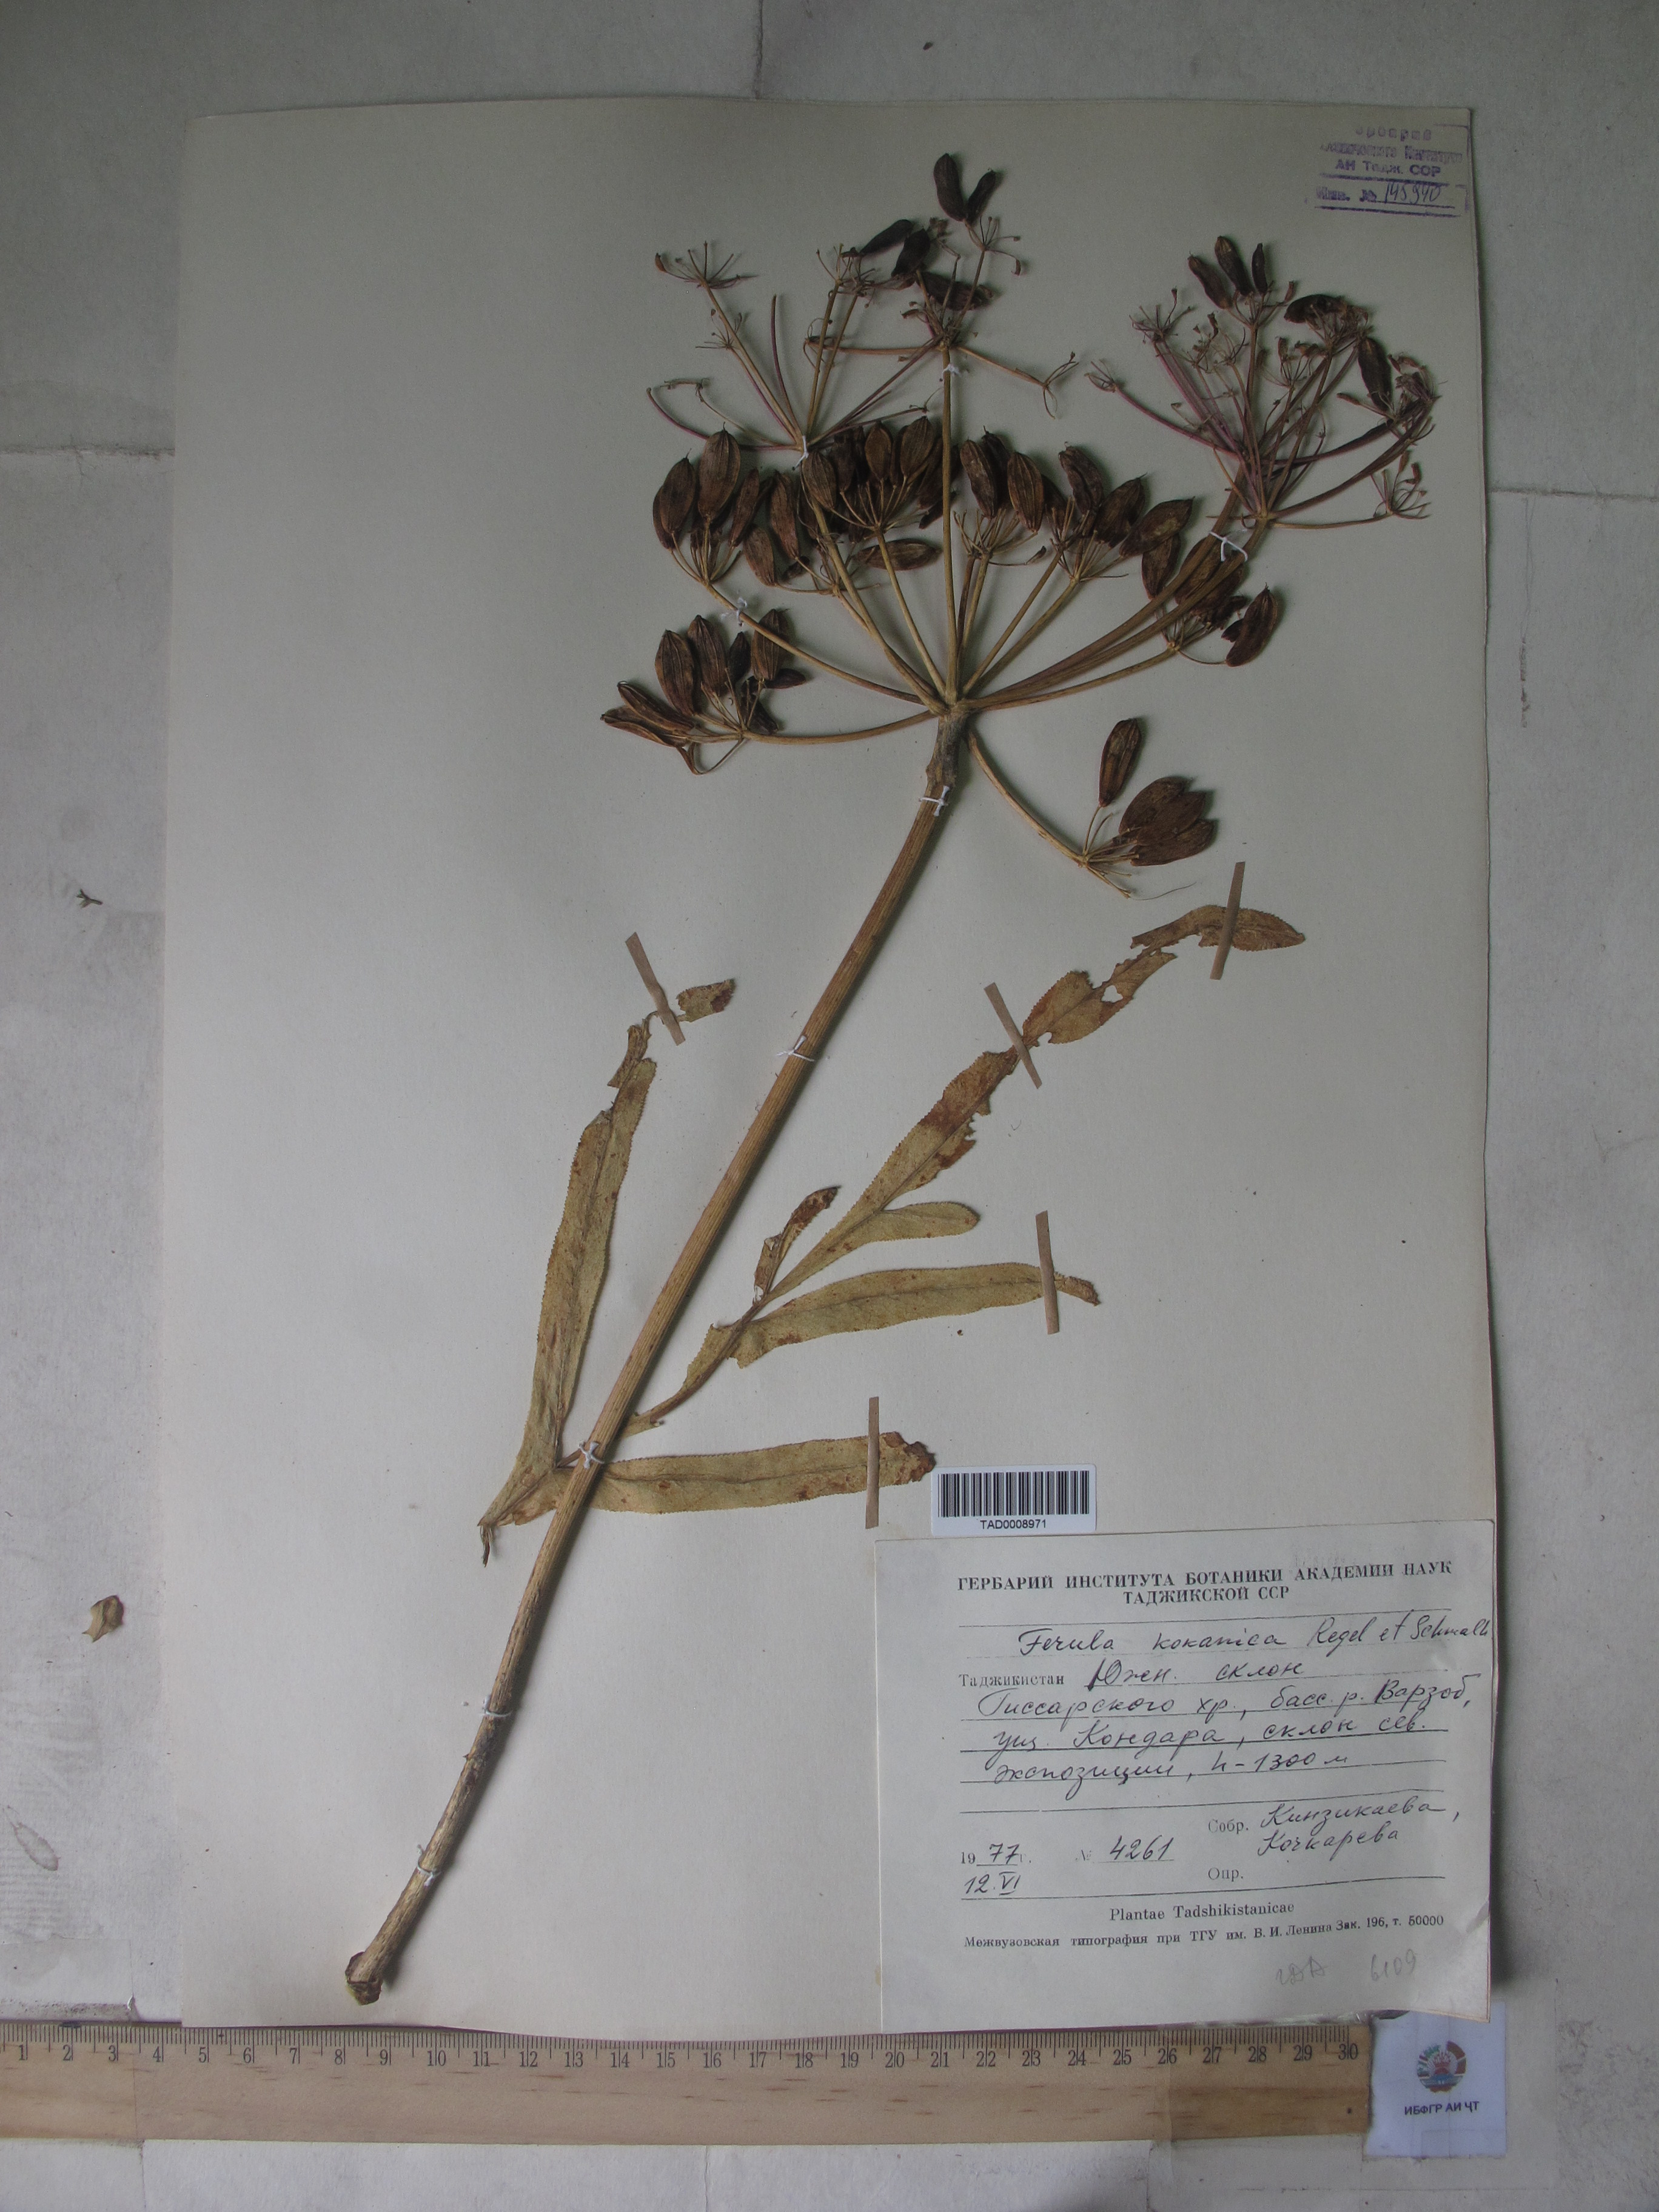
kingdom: Plantae
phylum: Tracheophyta
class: Magnoliopsida
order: Apiales
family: Apiaceae
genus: Ferula
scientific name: Ferula kokanica
